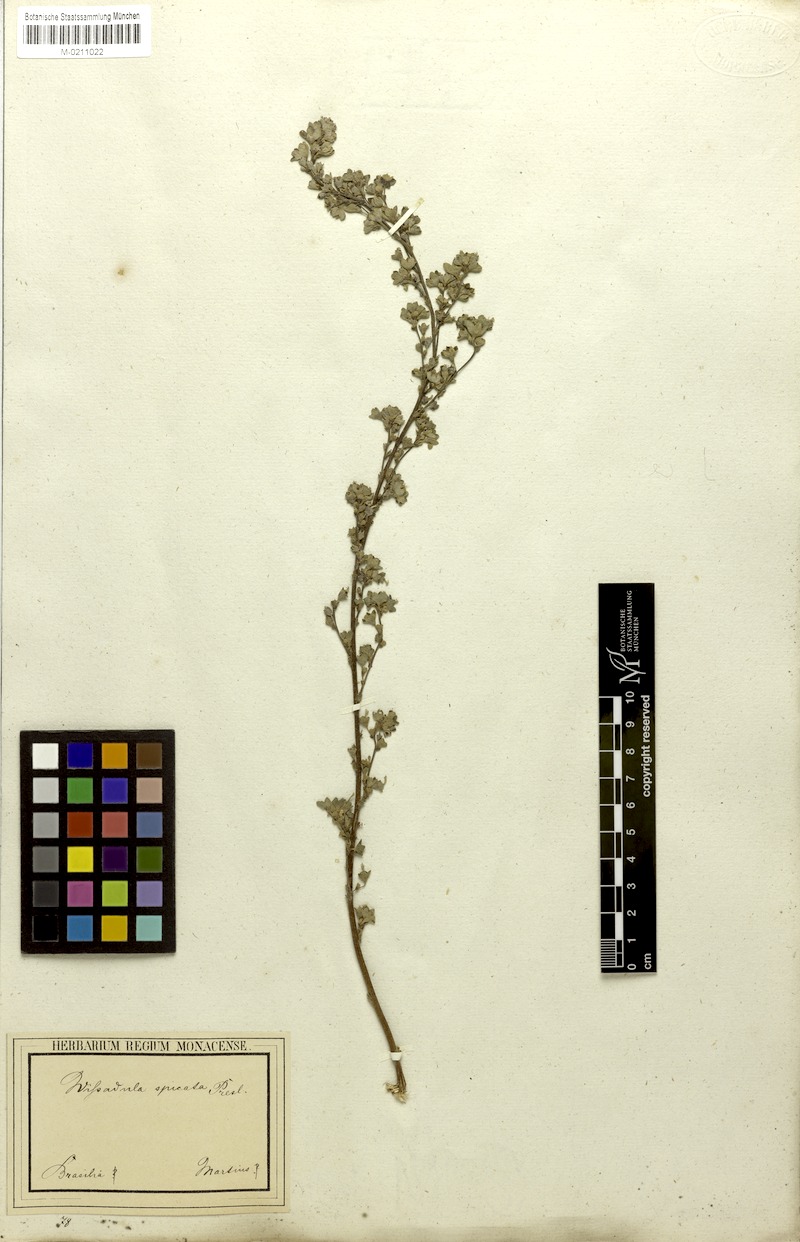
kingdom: Plantae
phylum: Tracheophyta
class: Magnoliopsida
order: Malvales
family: Malvaceae
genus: Allobriquetia
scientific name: Allobriquetia spicata
